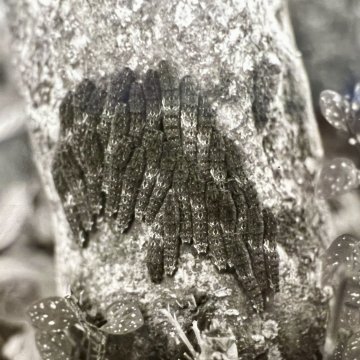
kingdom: Animalia
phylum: Arthropoda
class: Insecta
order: Lepidoptera
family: Papilionidae
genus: Papilio
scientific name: Papilio anchisiades
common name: Ruby-spotted Swallowtail
